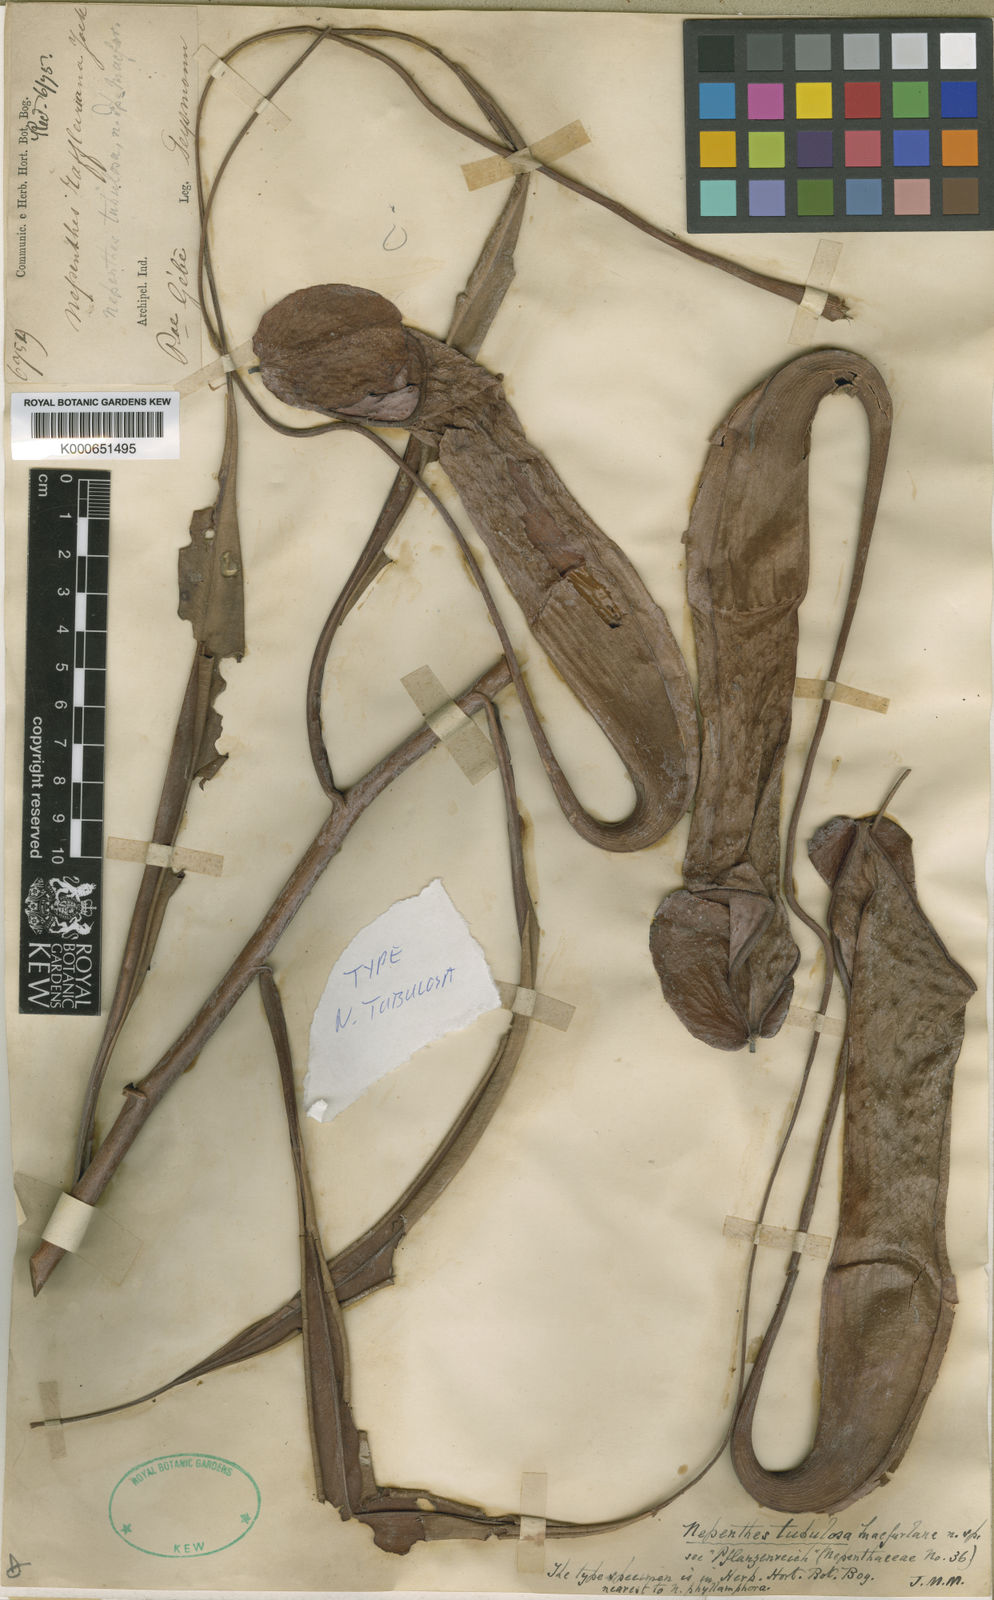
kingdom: Plantae
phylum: Tracheophyta
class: Magnoliopsida
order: Caryophyllales
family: Nepenthaceae
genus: Nepenthes
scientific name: Nepenthes mirabilis
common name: Tropical pitcherplant
